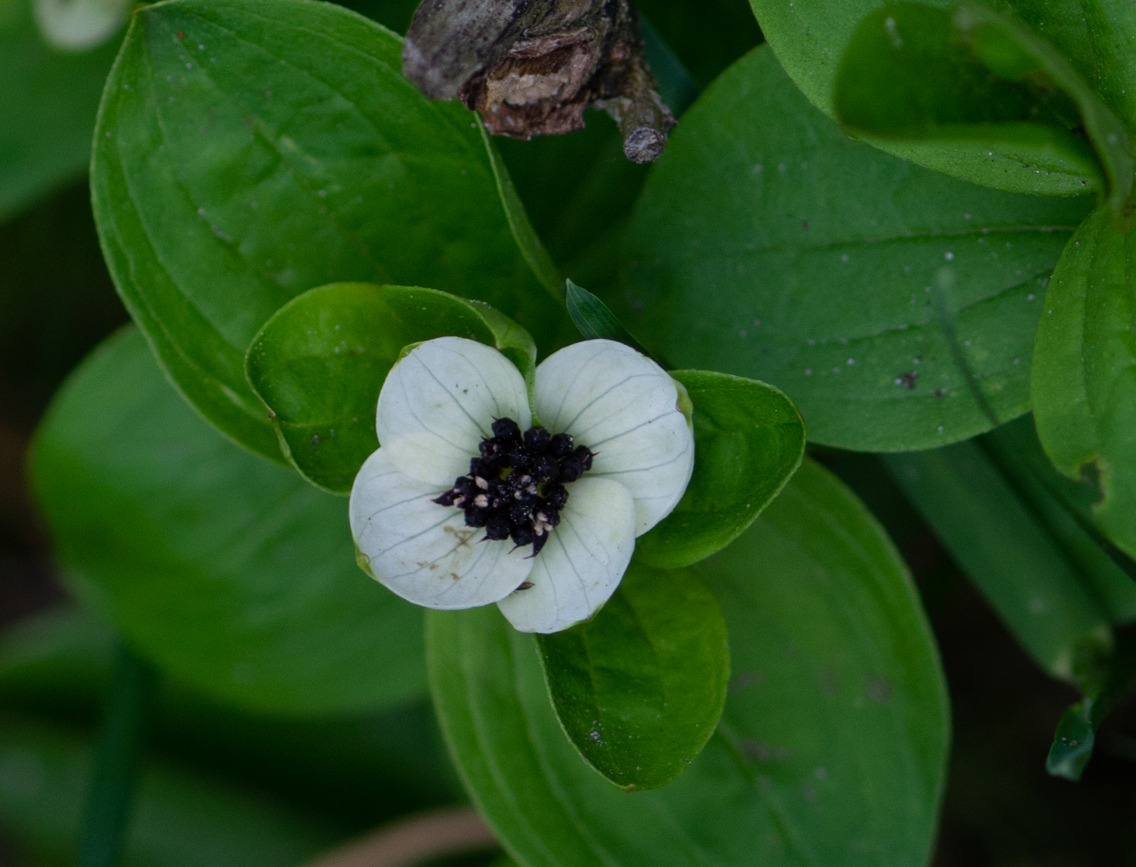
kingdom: Plantae
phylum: Tracheophyta
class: Magnoliopsida
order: Cornales
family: Cornaceae
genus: Cornus
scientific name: Cornus suecica
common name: Hønsebær
